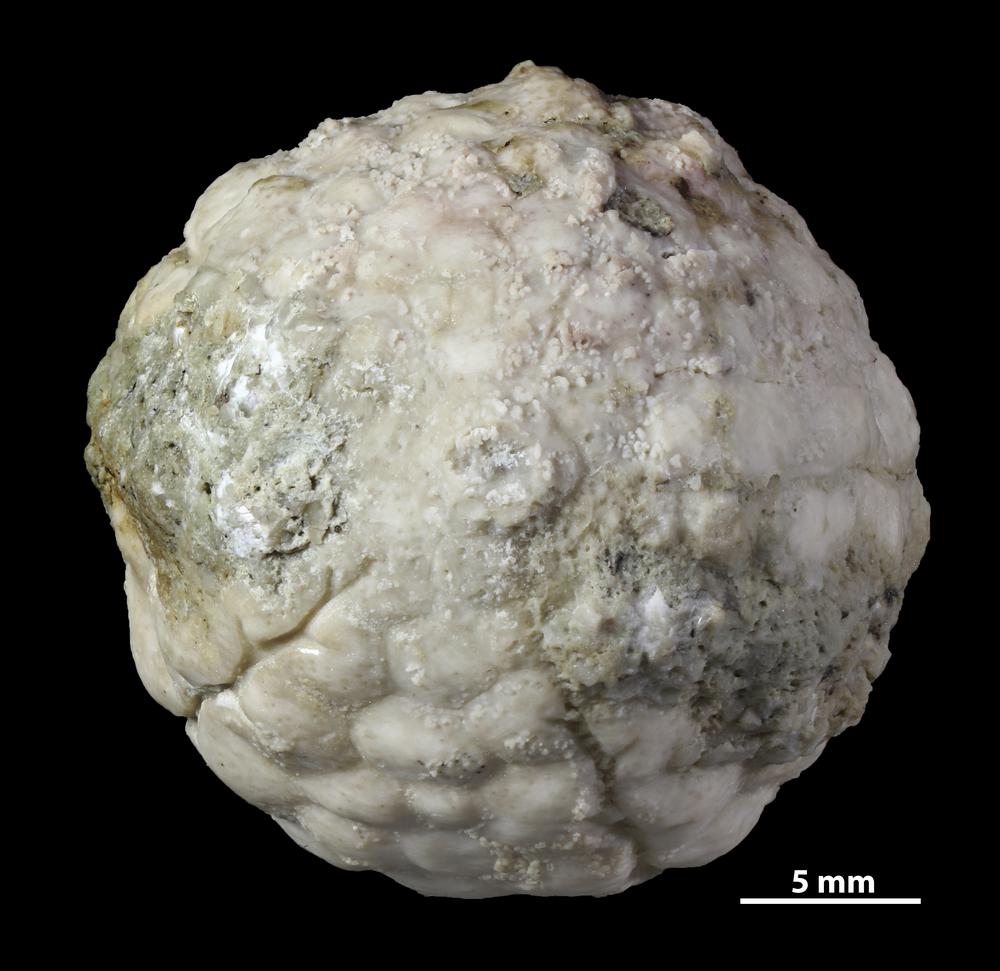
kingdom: Animalia
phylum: Echinodermata
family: Protocrinitidae
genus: Protocrinites
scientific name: Protocrinites oviformis
